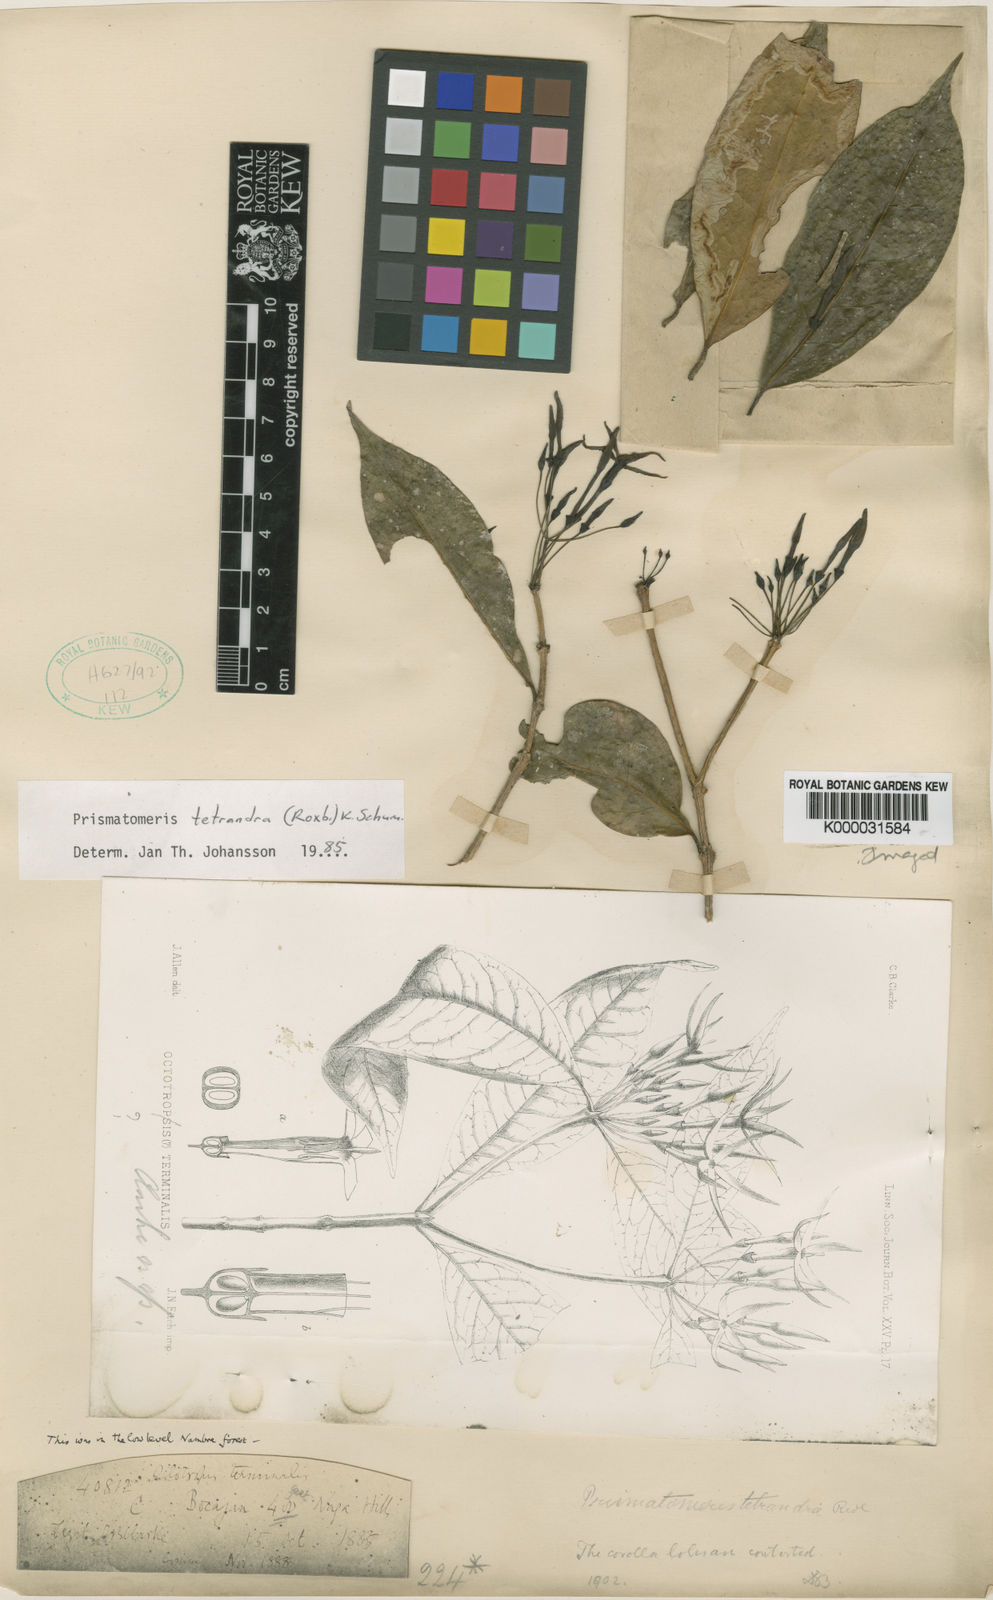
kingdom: Plantae
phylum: Tracheophyta
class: Magnoliopsida
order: Gentianales
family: Rubiaceae
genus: Prismatomeris
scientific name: Prismatomeris tetrandra
